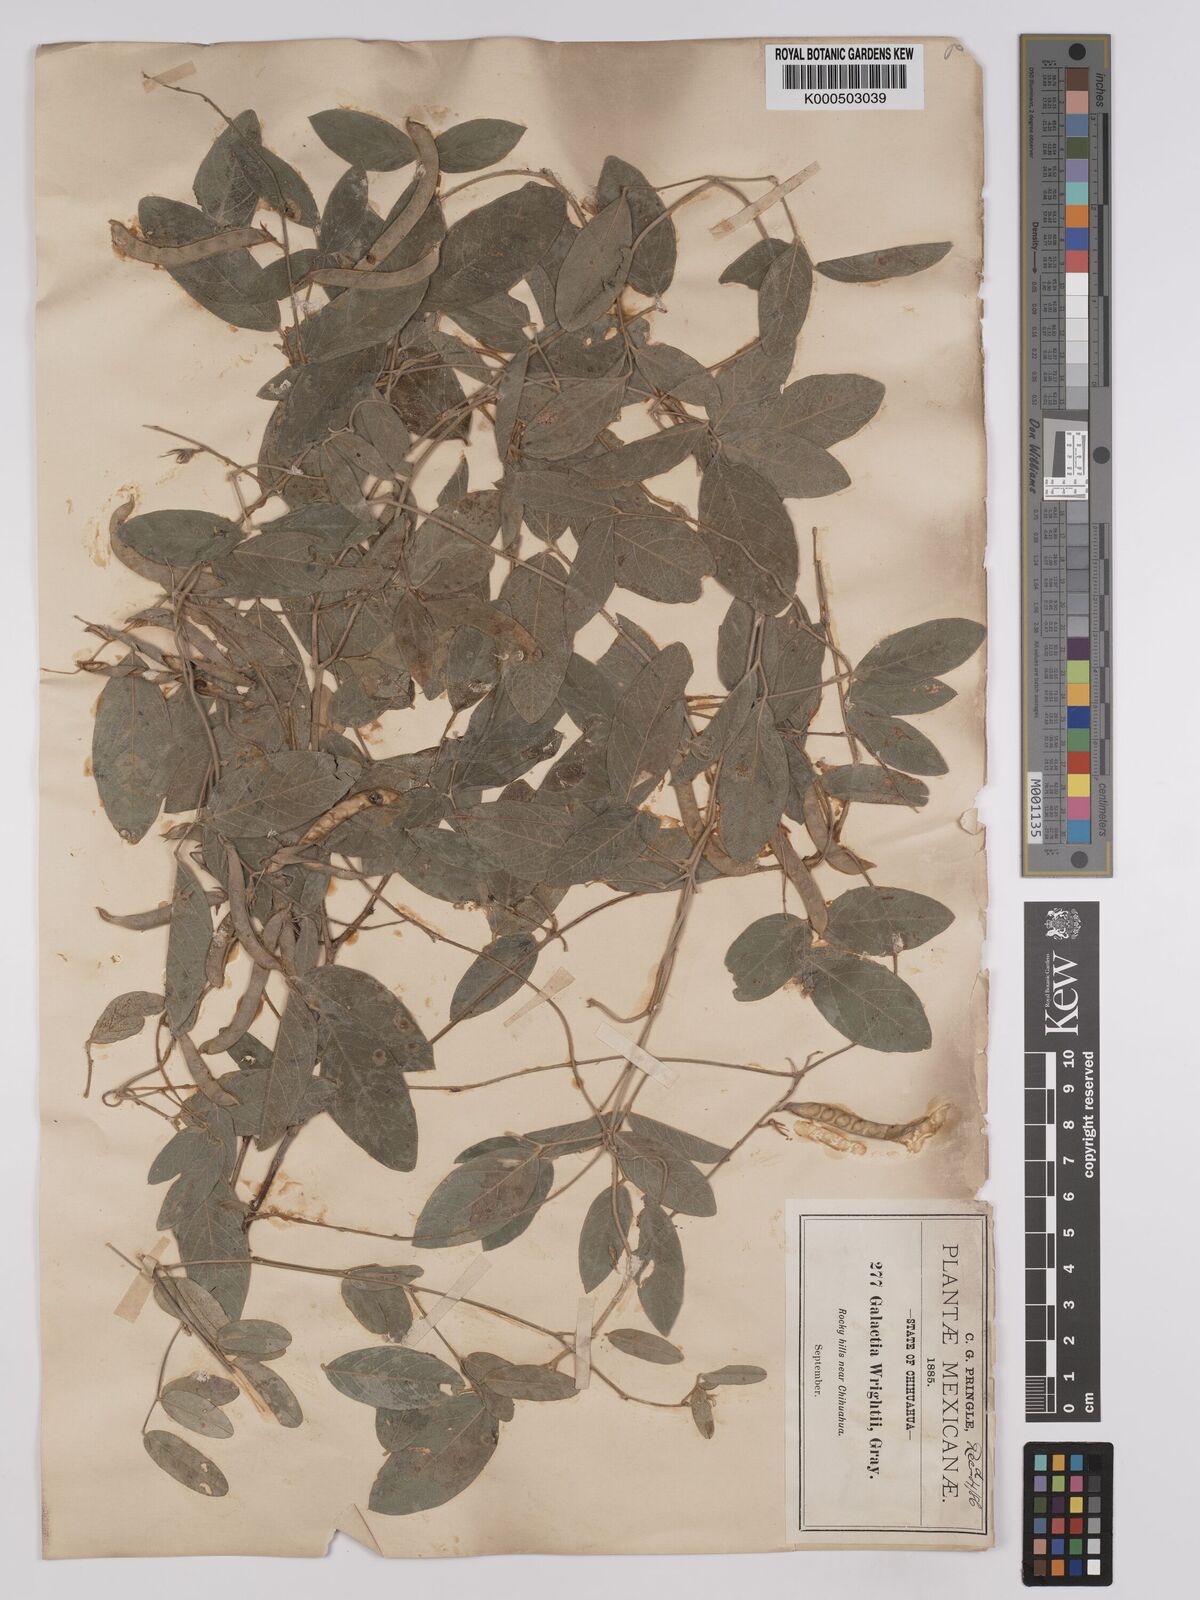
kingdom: Plantae
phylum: Tracheophyta
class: Magnoliopsida
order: Fabales
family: Fabaceae
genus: Galactia
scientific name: Galactia wrightii
